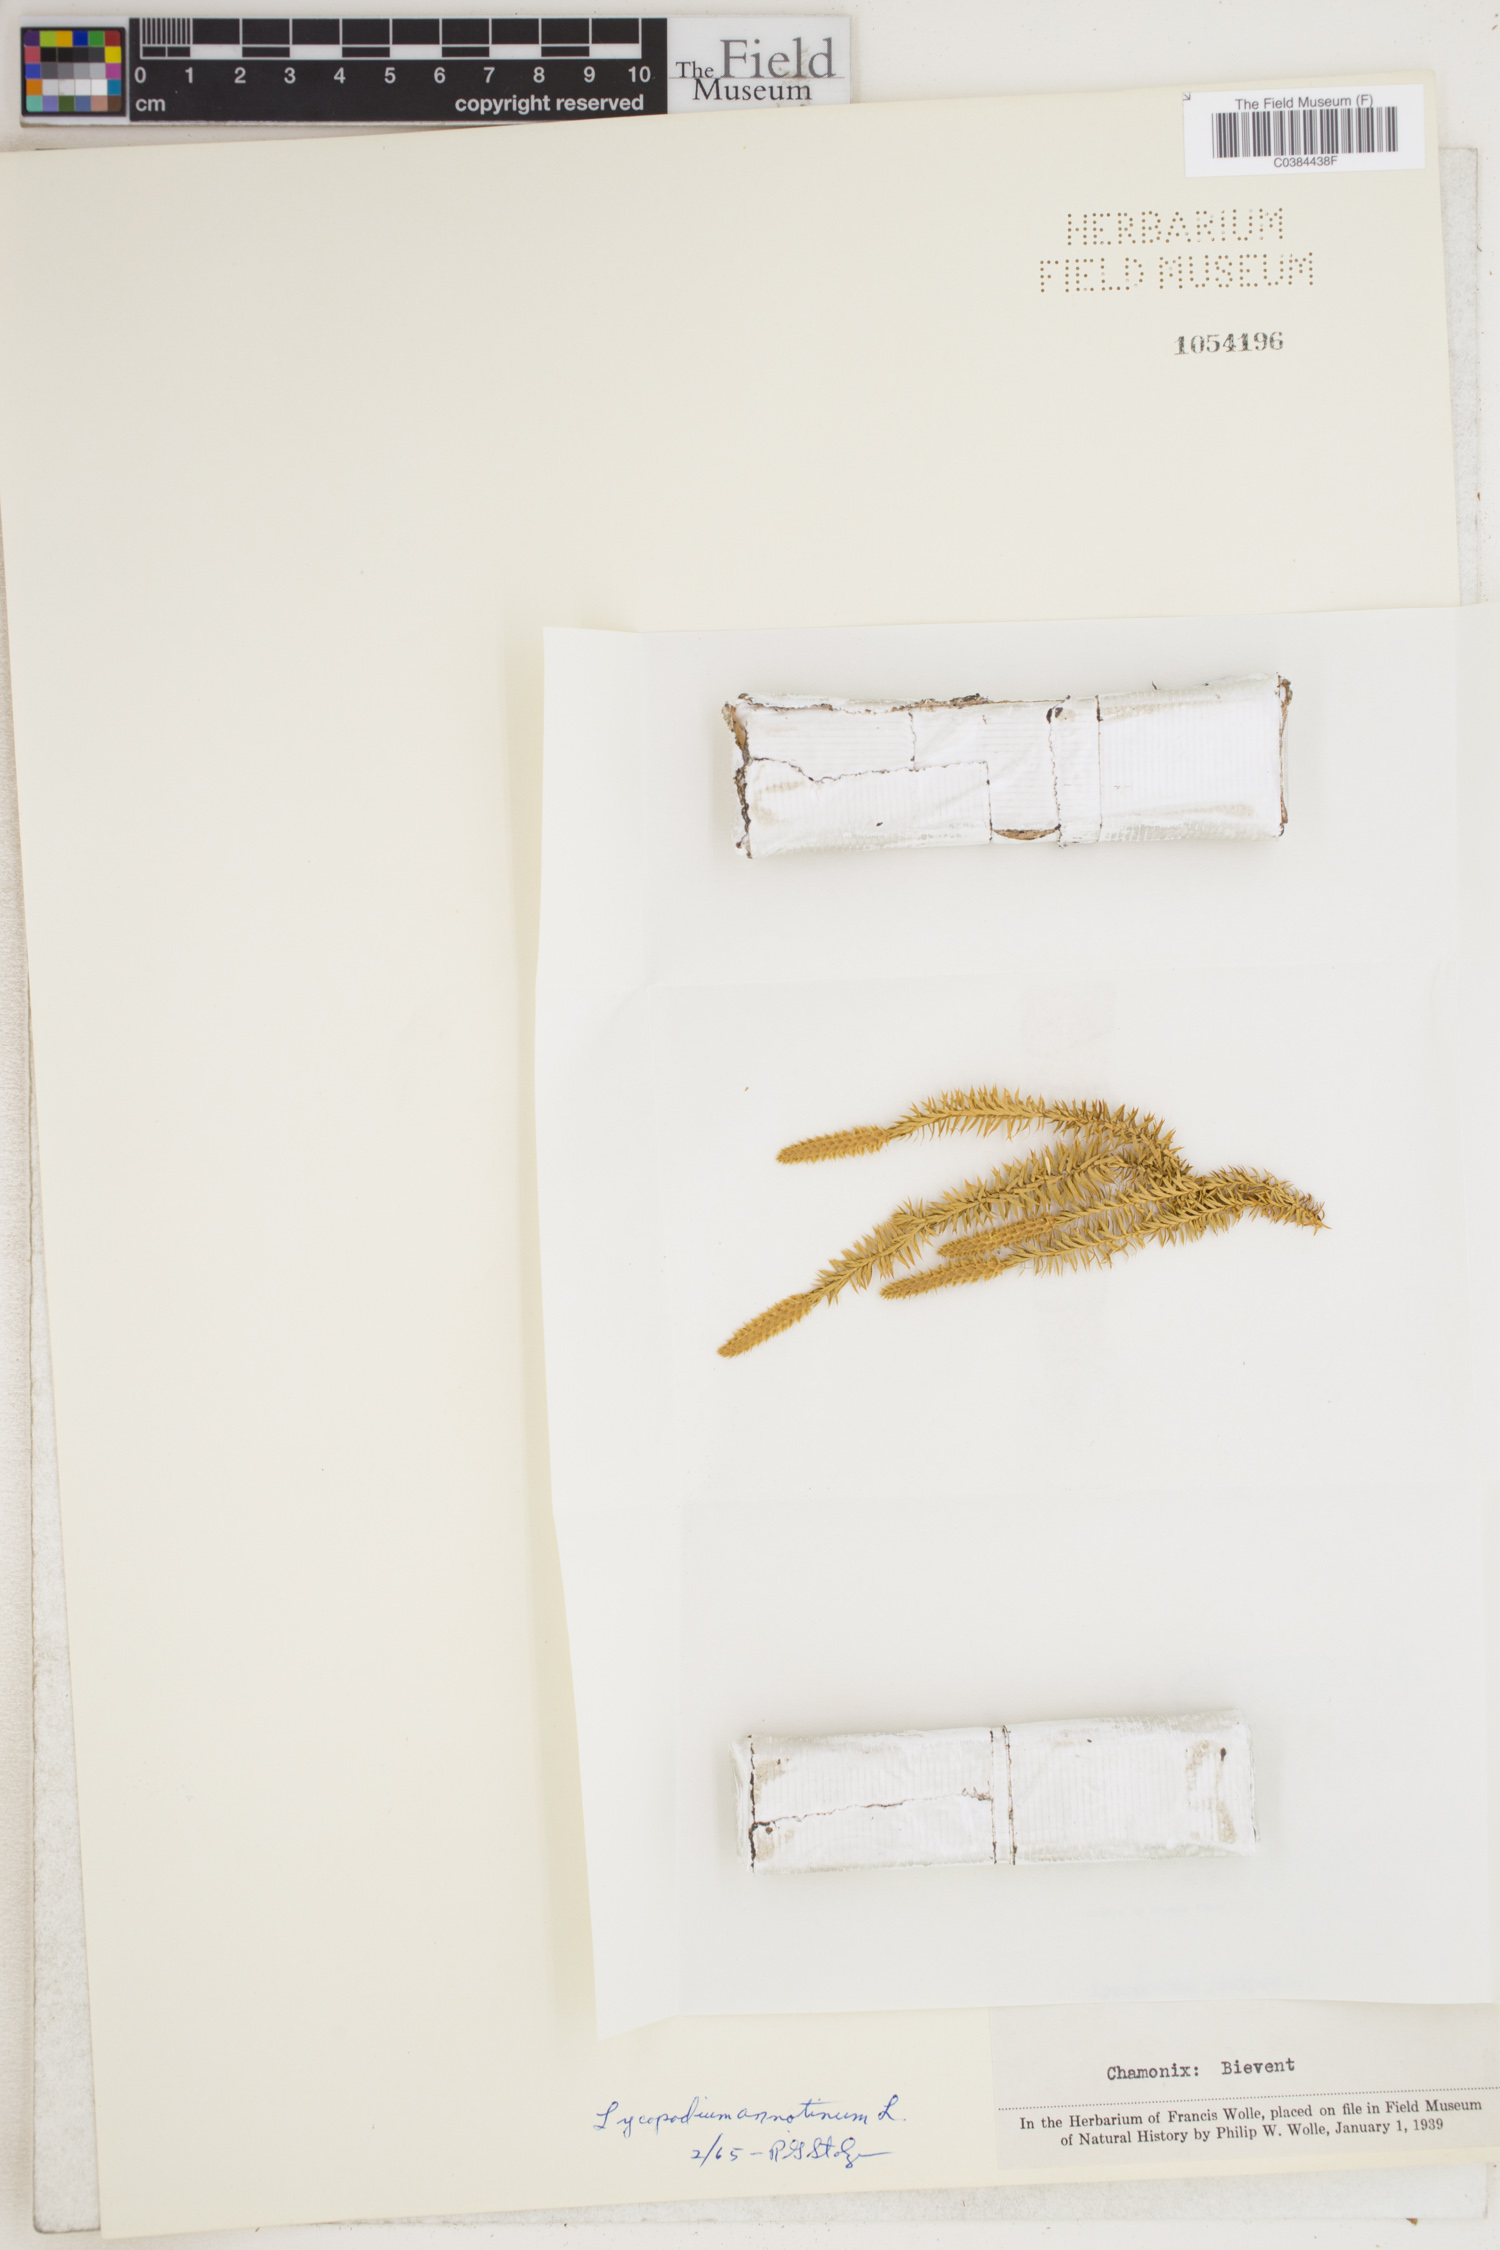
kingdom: Plantae
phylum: Tracheophyta
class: Lycopodiopsida
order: Lycopodiales
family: Lycopodiaceae
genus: Spinulum
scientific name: Spinulum annotinum
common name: Interrupted club-moss
